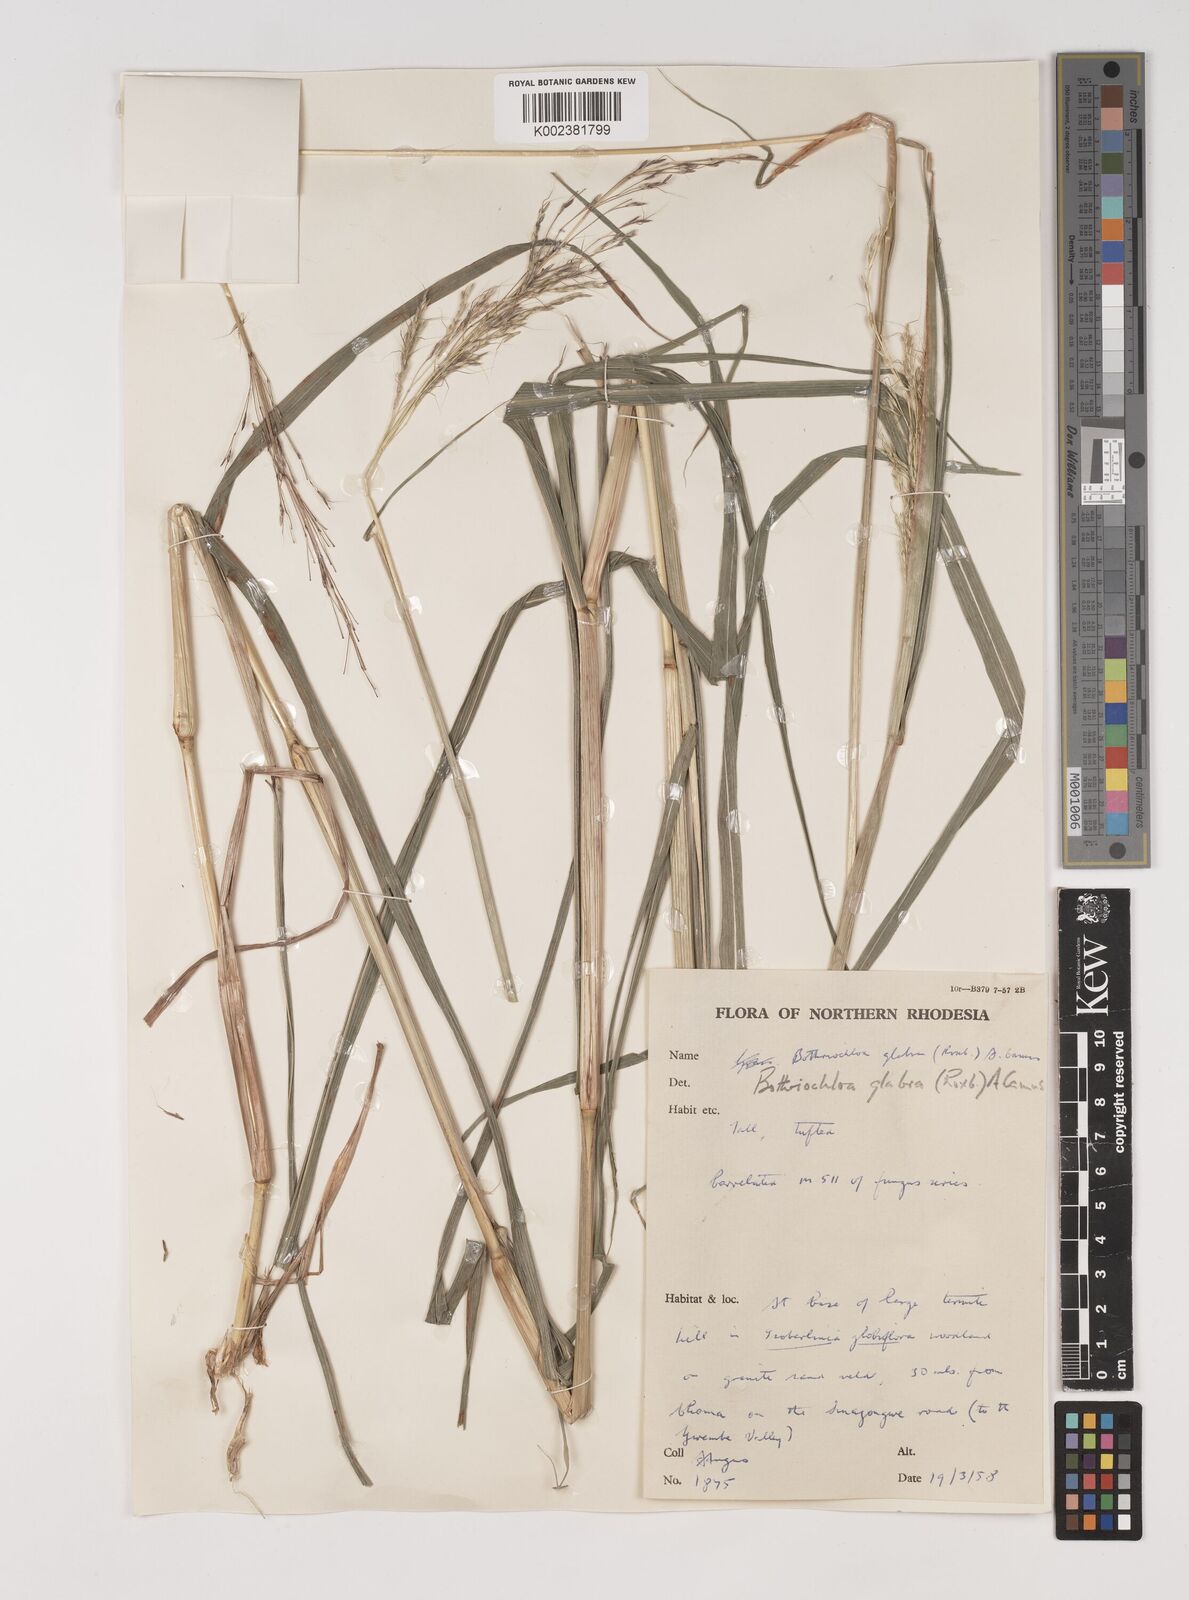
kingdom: Plantae
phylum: Tracheophyta
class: Liliopsida
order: Poales
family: Poaceae
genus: Bothriochloa
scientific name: Bothriochloa bladhii
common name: Caucasian bluestem
